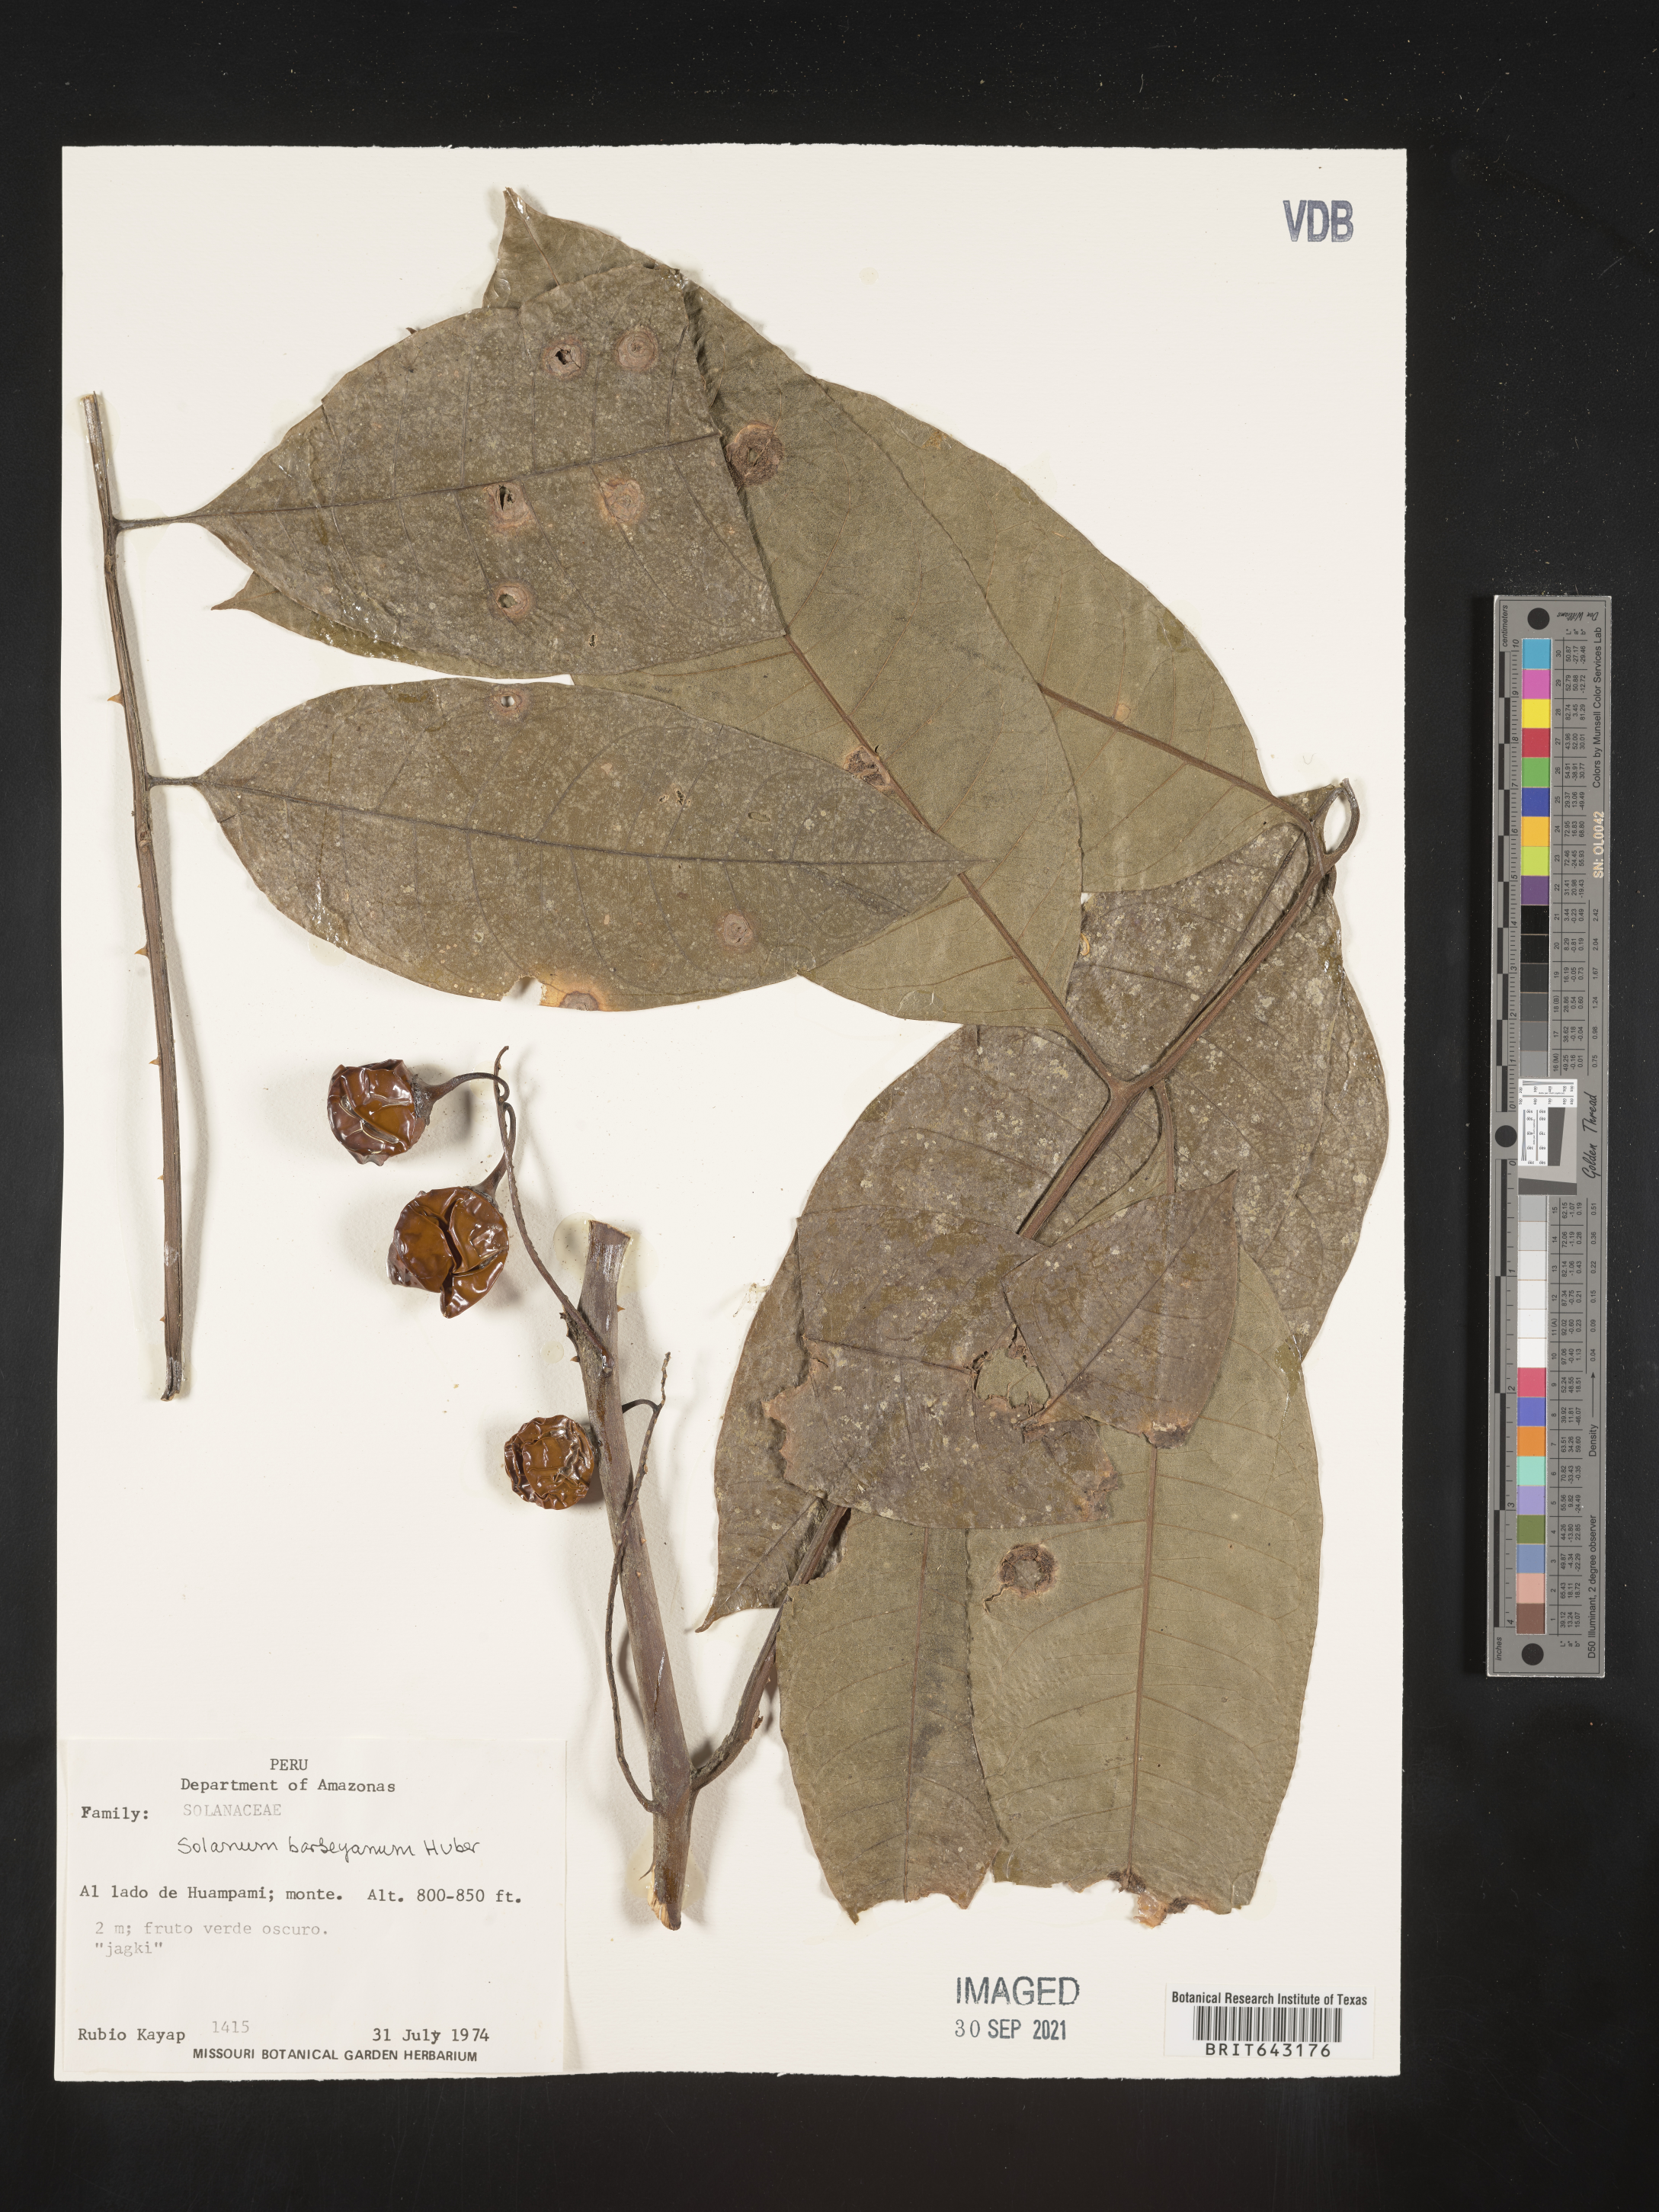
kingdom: Plantae
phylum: Tracheophyta
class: Magnoliopsida
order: Solanales
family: Solanaceae
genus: Solanum
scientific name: Solanum
